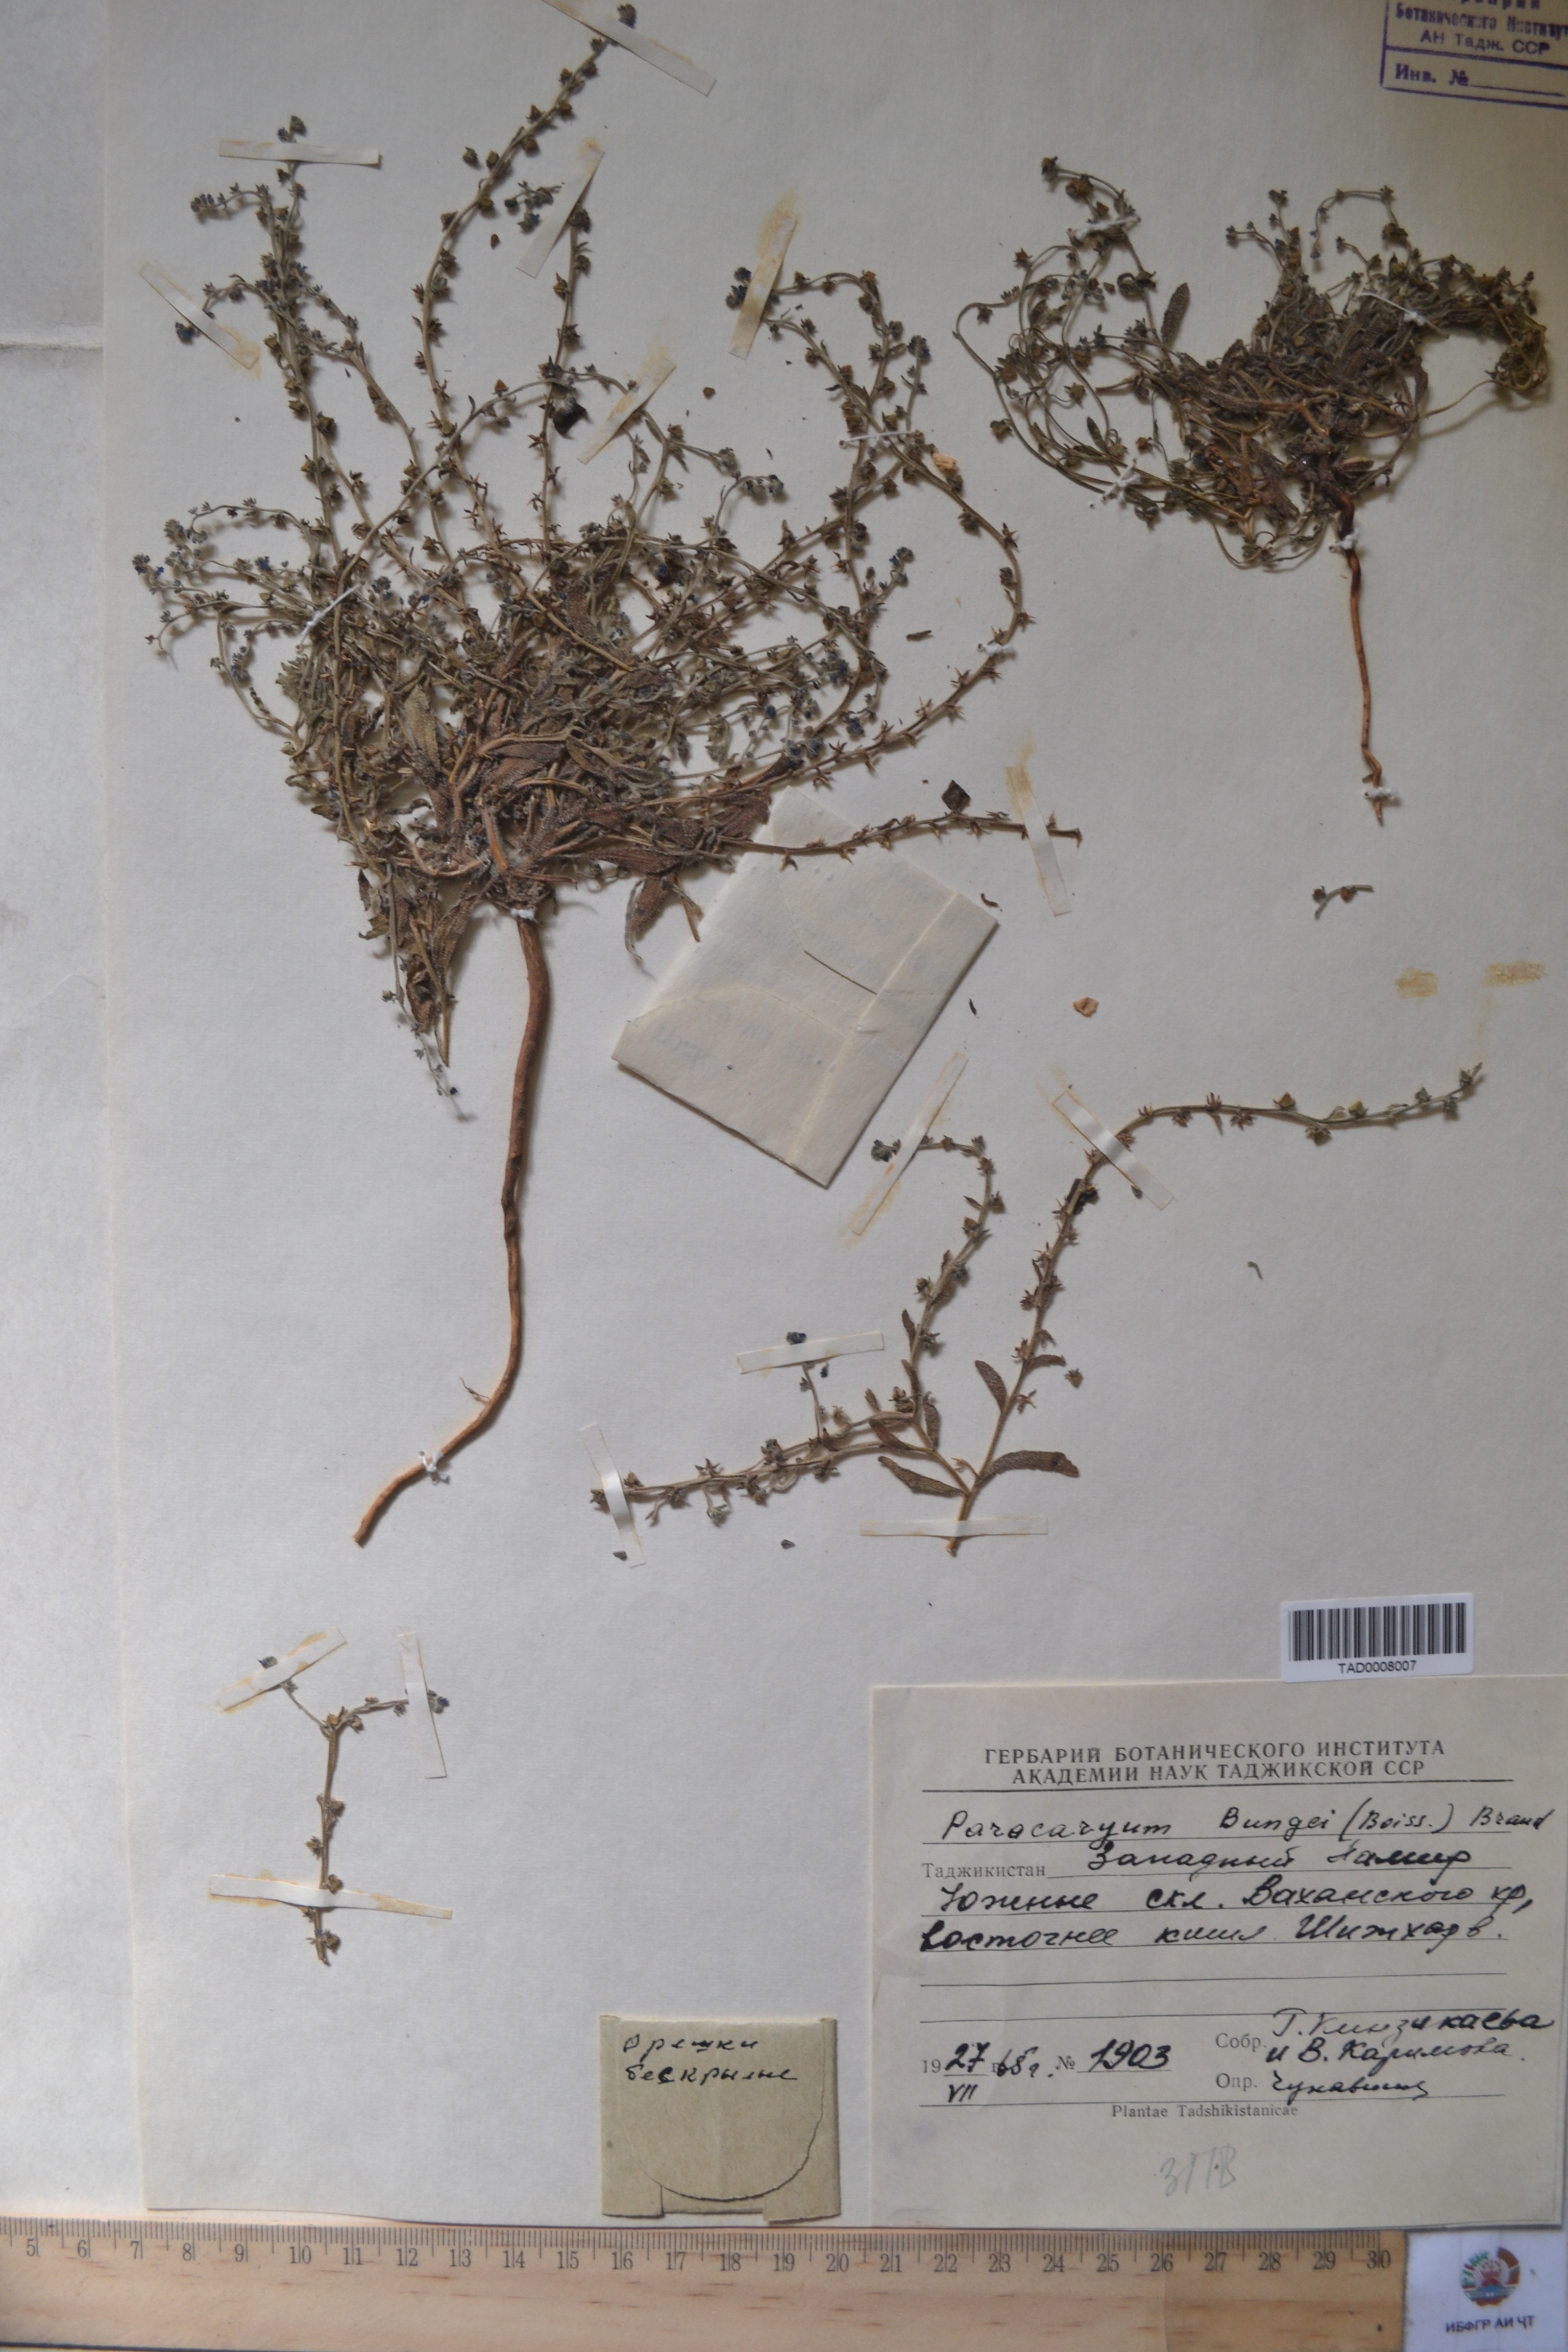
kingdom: Plantae
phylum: Tracheophyta
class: Magnoliopsida
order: Boraginales
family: Boraginaceae
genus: Paracaryum
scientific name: Paracaryum
